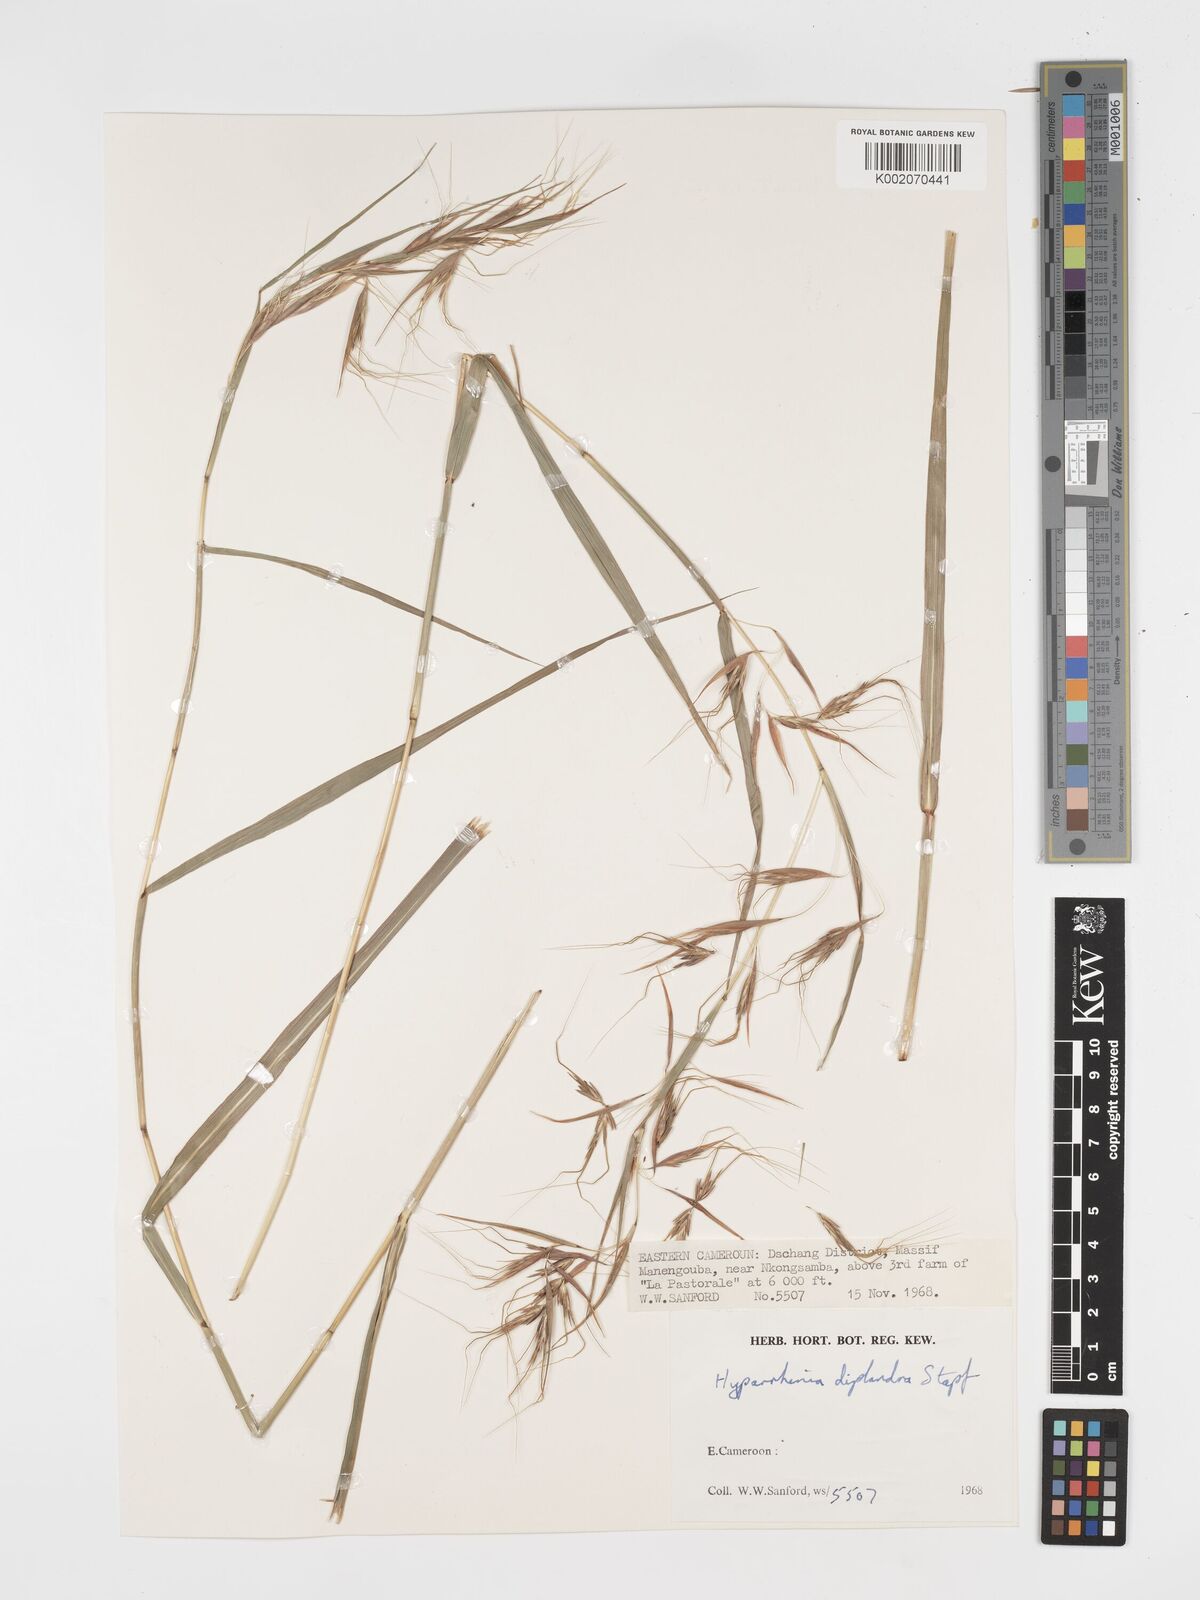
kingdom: Plantae
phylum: Tracheophyta
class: Liliopsida
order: Poales
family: Poaceae
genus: Hyparrhenia
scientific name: Hyparrhenia diplandra
